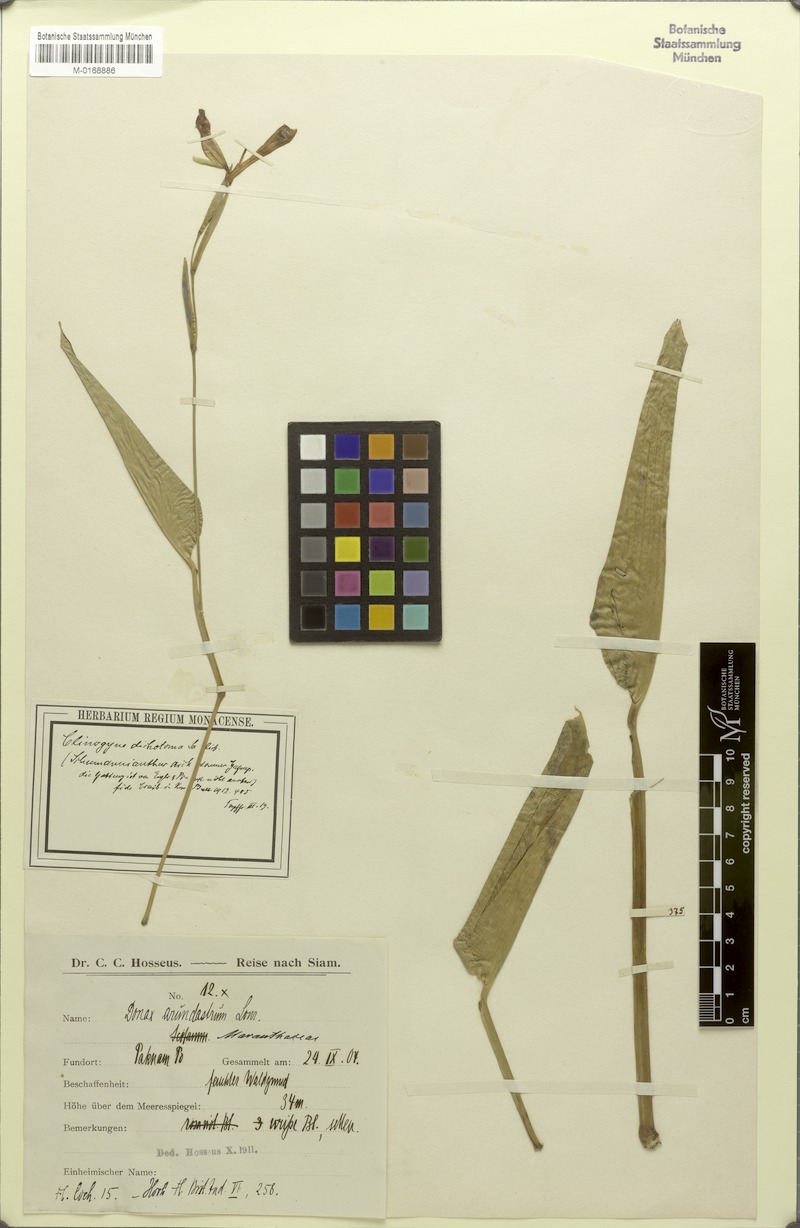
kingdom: Plantae
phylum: Tracheophyta
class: Liliopsida
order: Zingiberales
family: Marantaceae
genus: Schumannianthus
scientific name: Schumannianthus benthamianus
